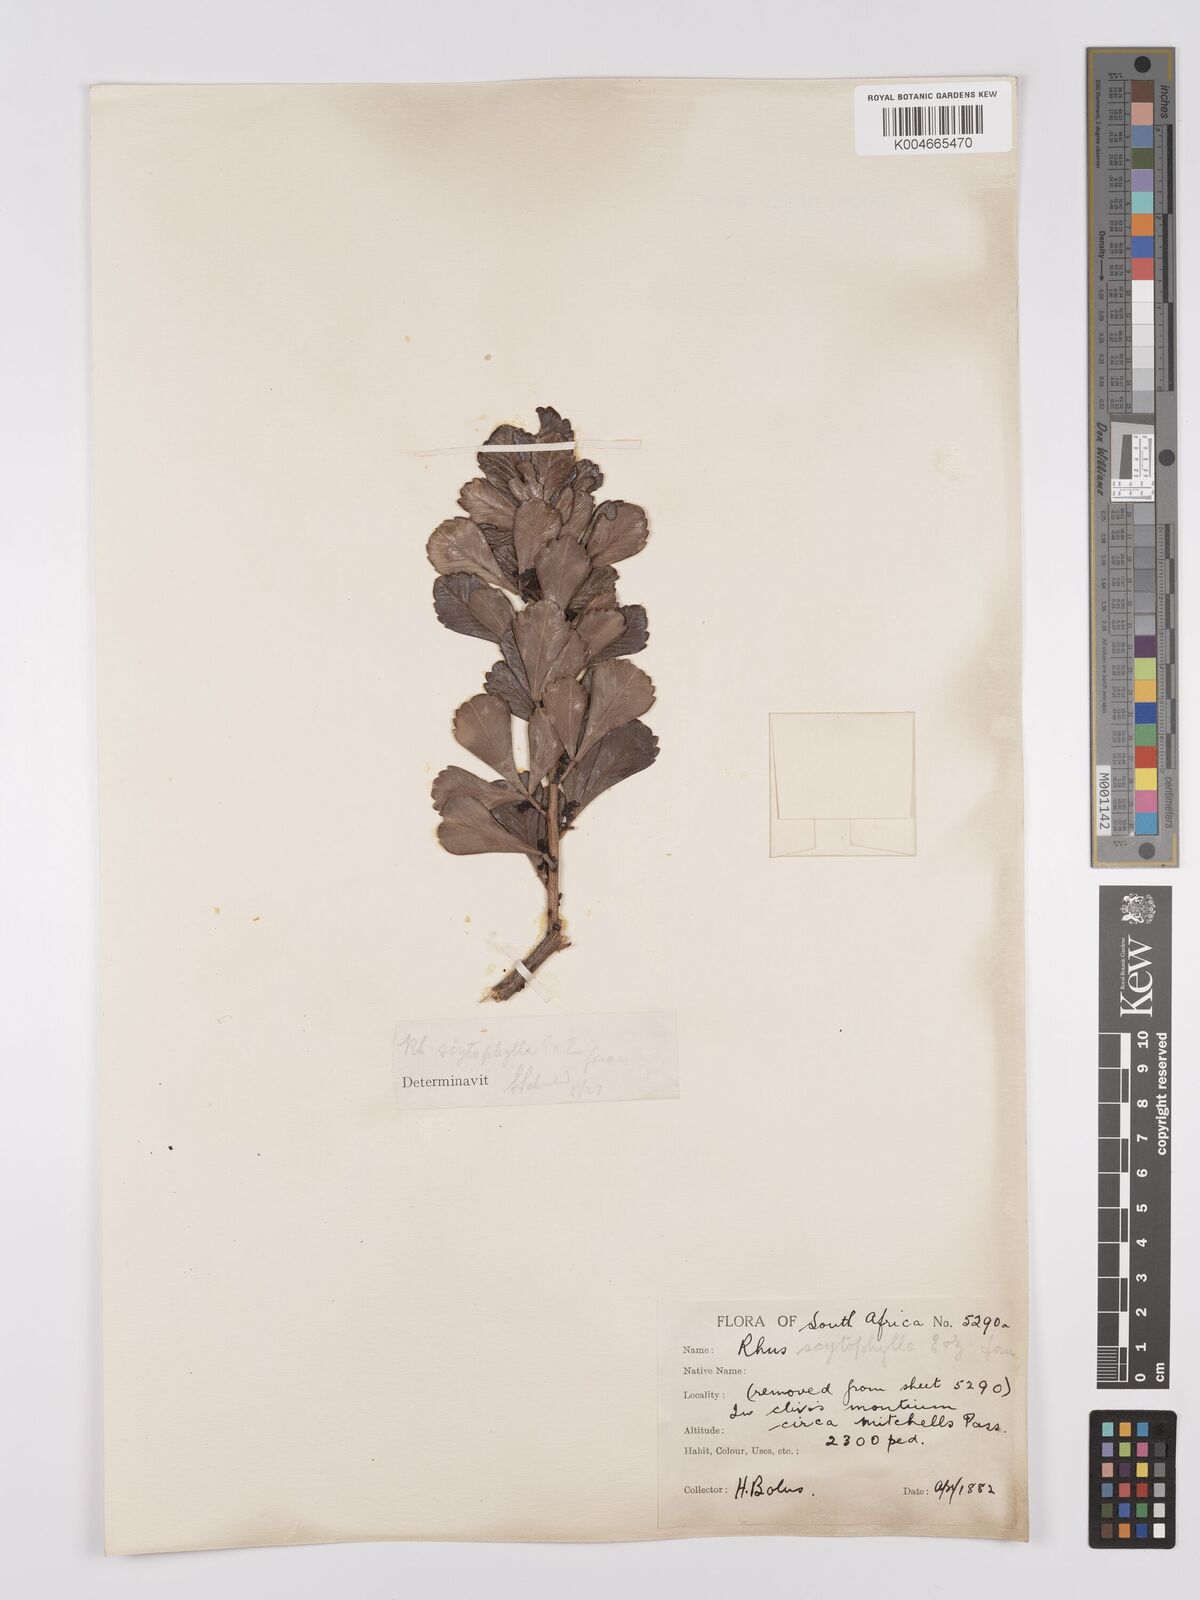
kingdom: Plantae
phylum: Tracheophyta
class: Magnoliopsida
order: Sapindales
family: Anacardiaceae
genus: Searsia
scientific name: Searsia scytophylla
